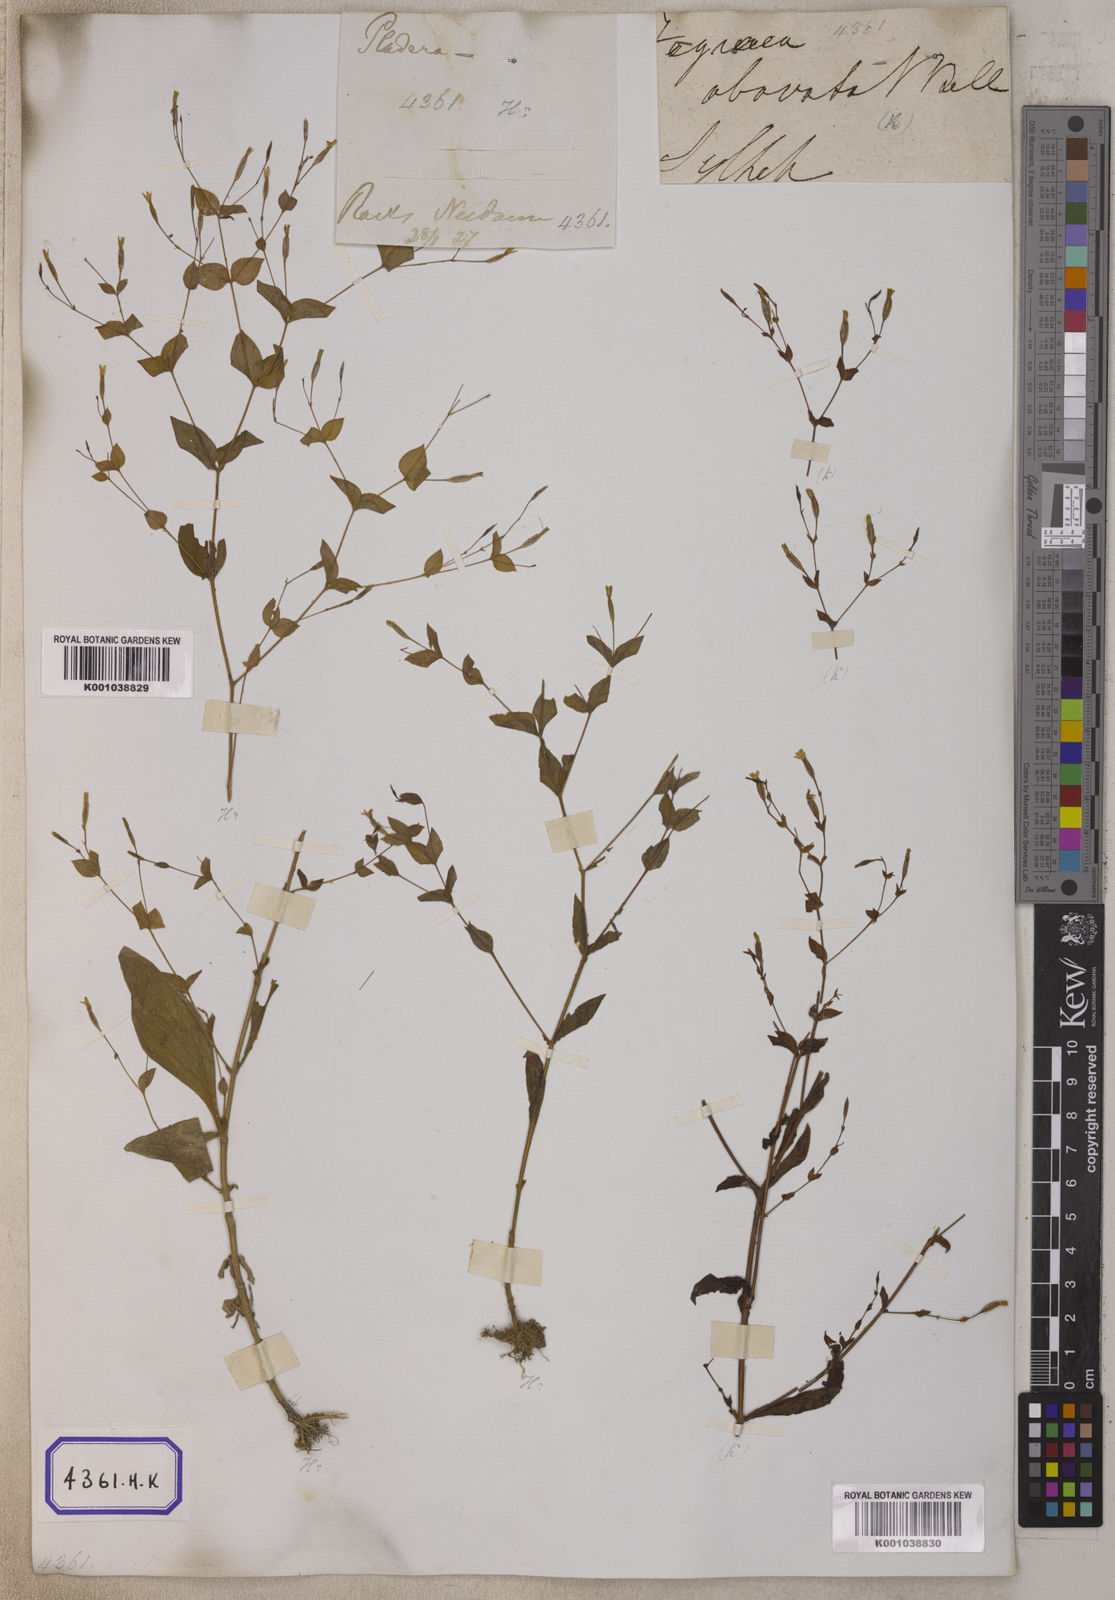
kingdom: Plantae
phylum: Tracheophyta
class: Magnoliopsida
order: Gentianales
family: Gentianaceae
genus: Canscora
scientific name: Canscora
